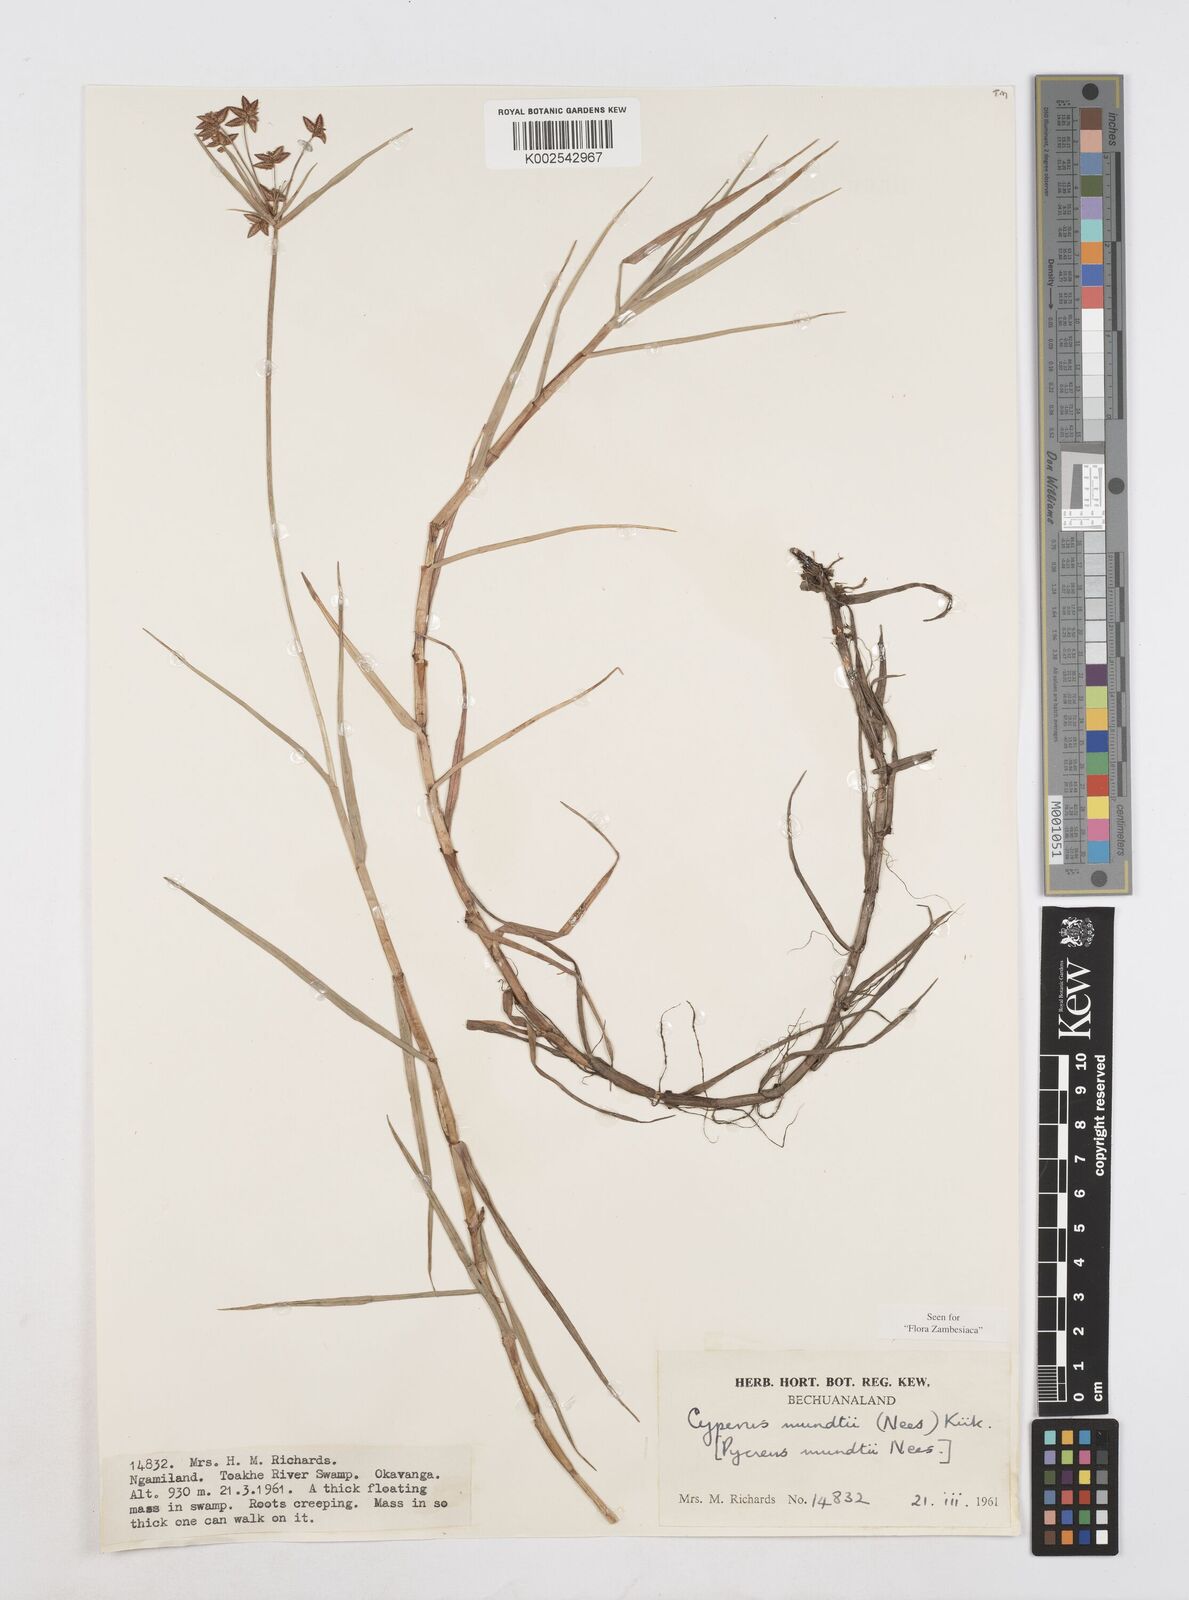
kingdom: Plantae
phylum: Tracheophyta
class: Liliopsida
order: Poales
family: Cyperaceae
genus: Cyperus
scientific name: Cyperus mundii
